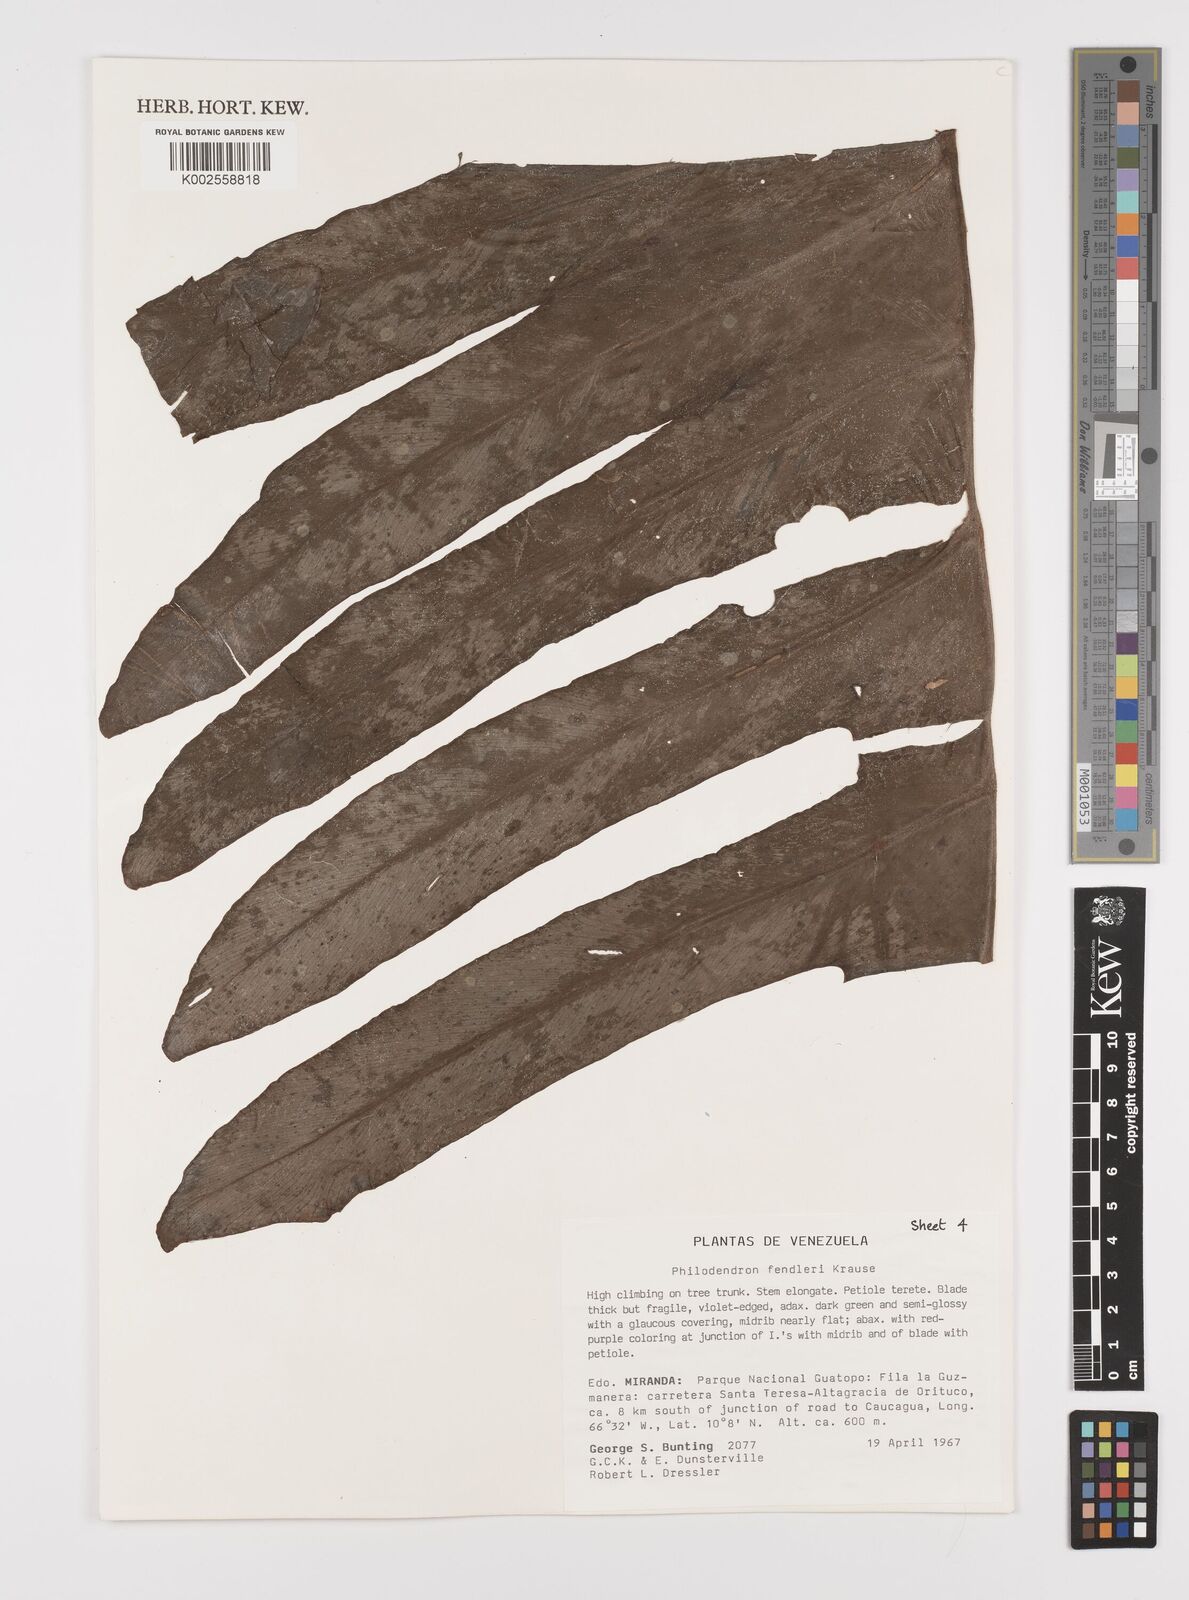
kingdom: Plantae
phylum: Tracheophyta
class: Liliopsida
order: Alismatales
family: Araceae
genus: Philodendron
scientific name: Philodendron fendleri
